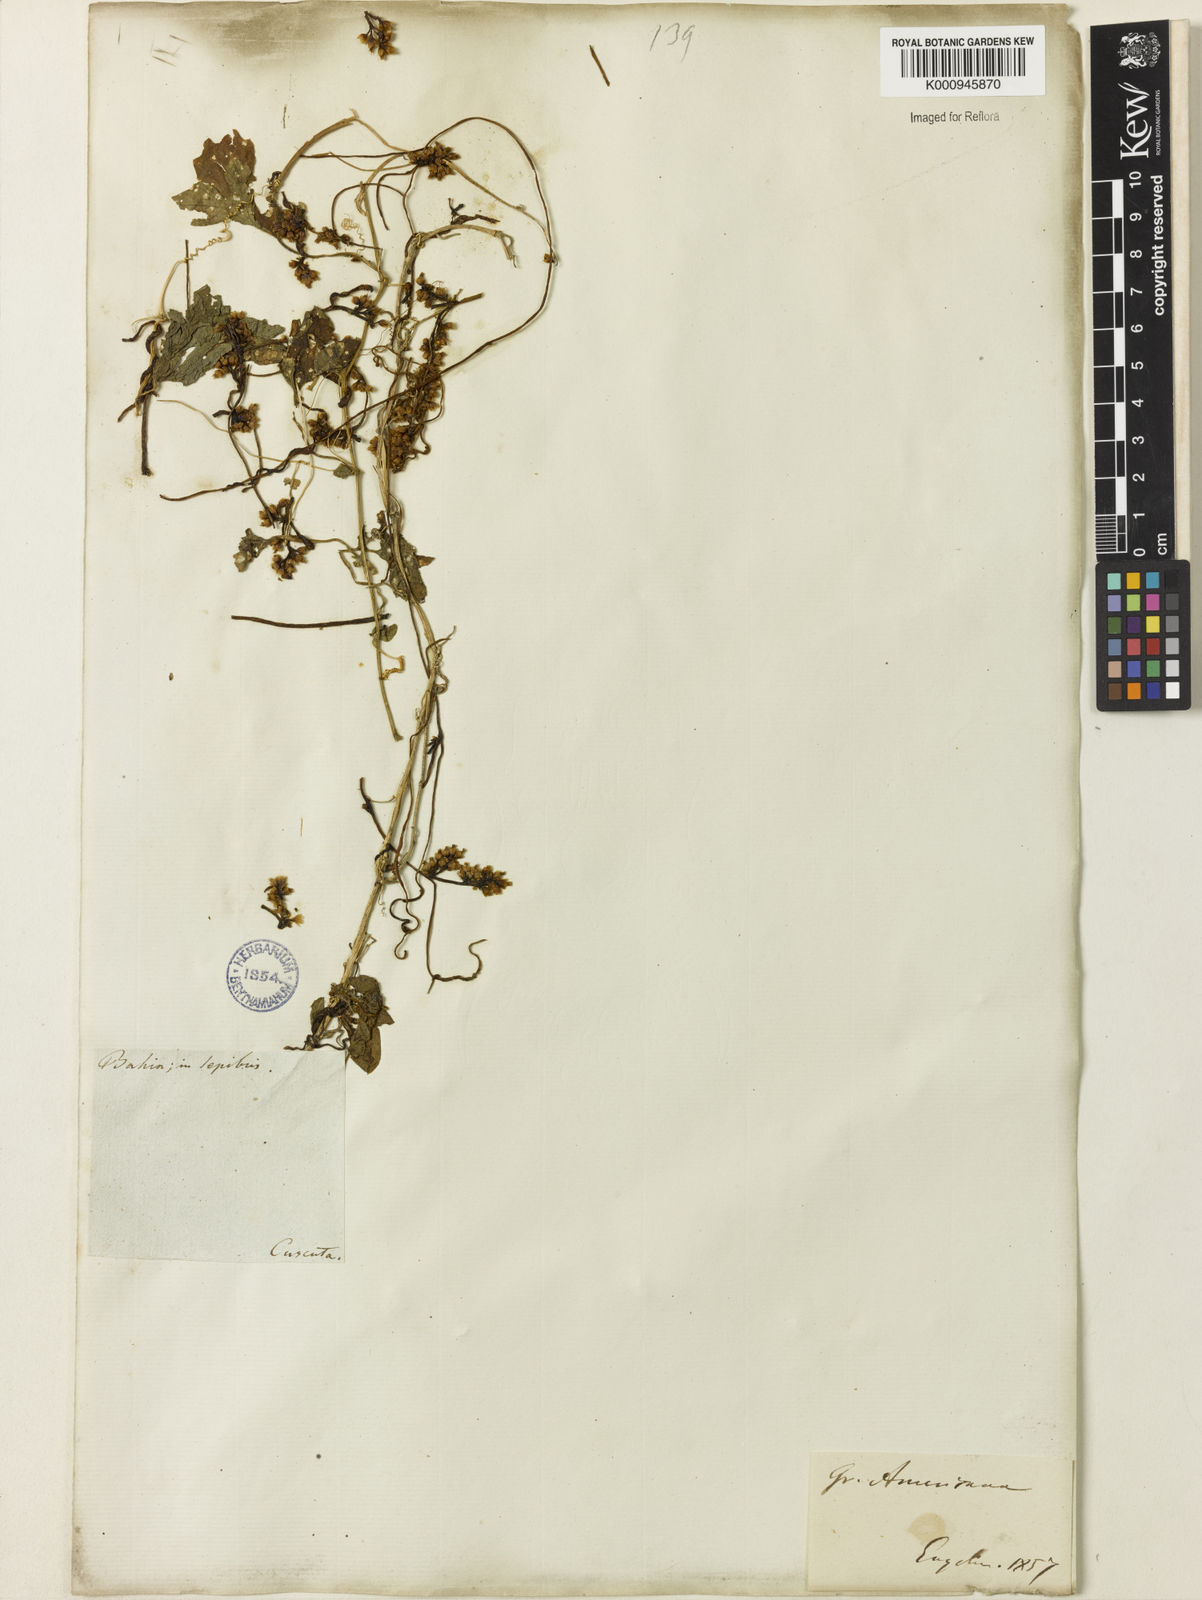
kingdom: Plantae
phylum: Tracheophyta
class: Magnoliopsida
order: Solanales
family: Convolvulaceae
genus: Cuscuta
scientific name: Cuscuta americana
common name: American dodder
